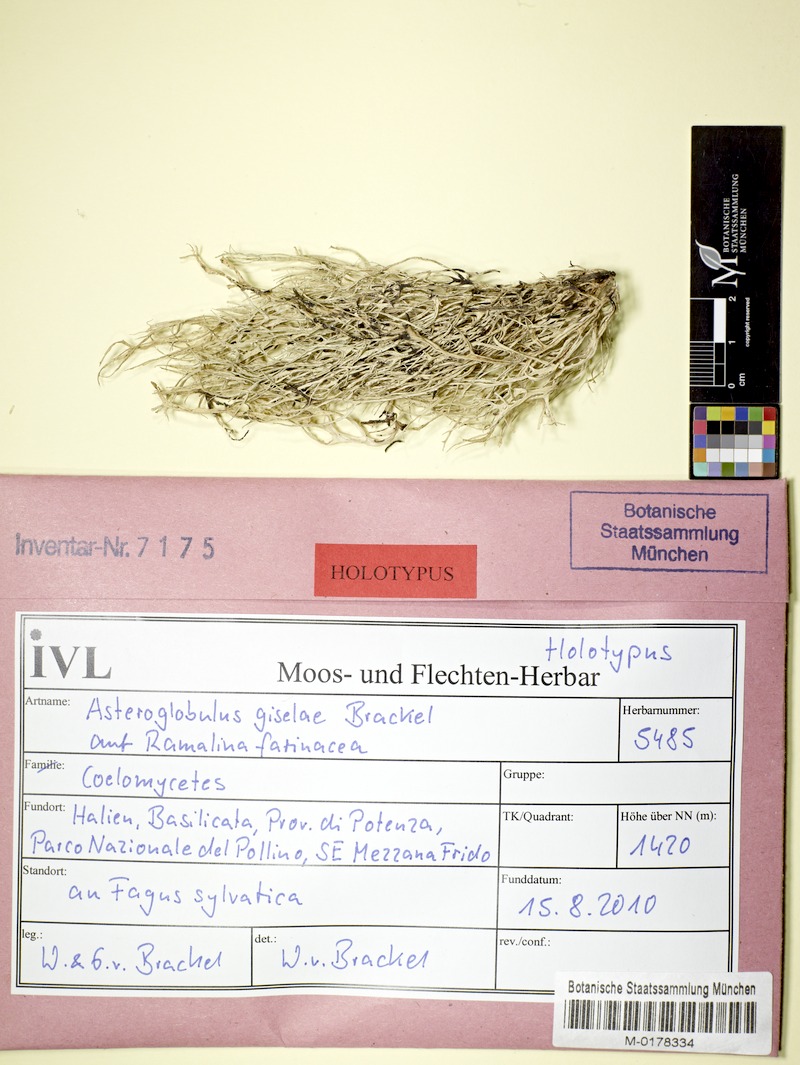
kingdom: Fungi
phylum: Ascomycota
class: Lecanoromycetes
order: Ostropales
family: Spirographaceae
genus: Spirographa
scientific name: Spirographa giselae
